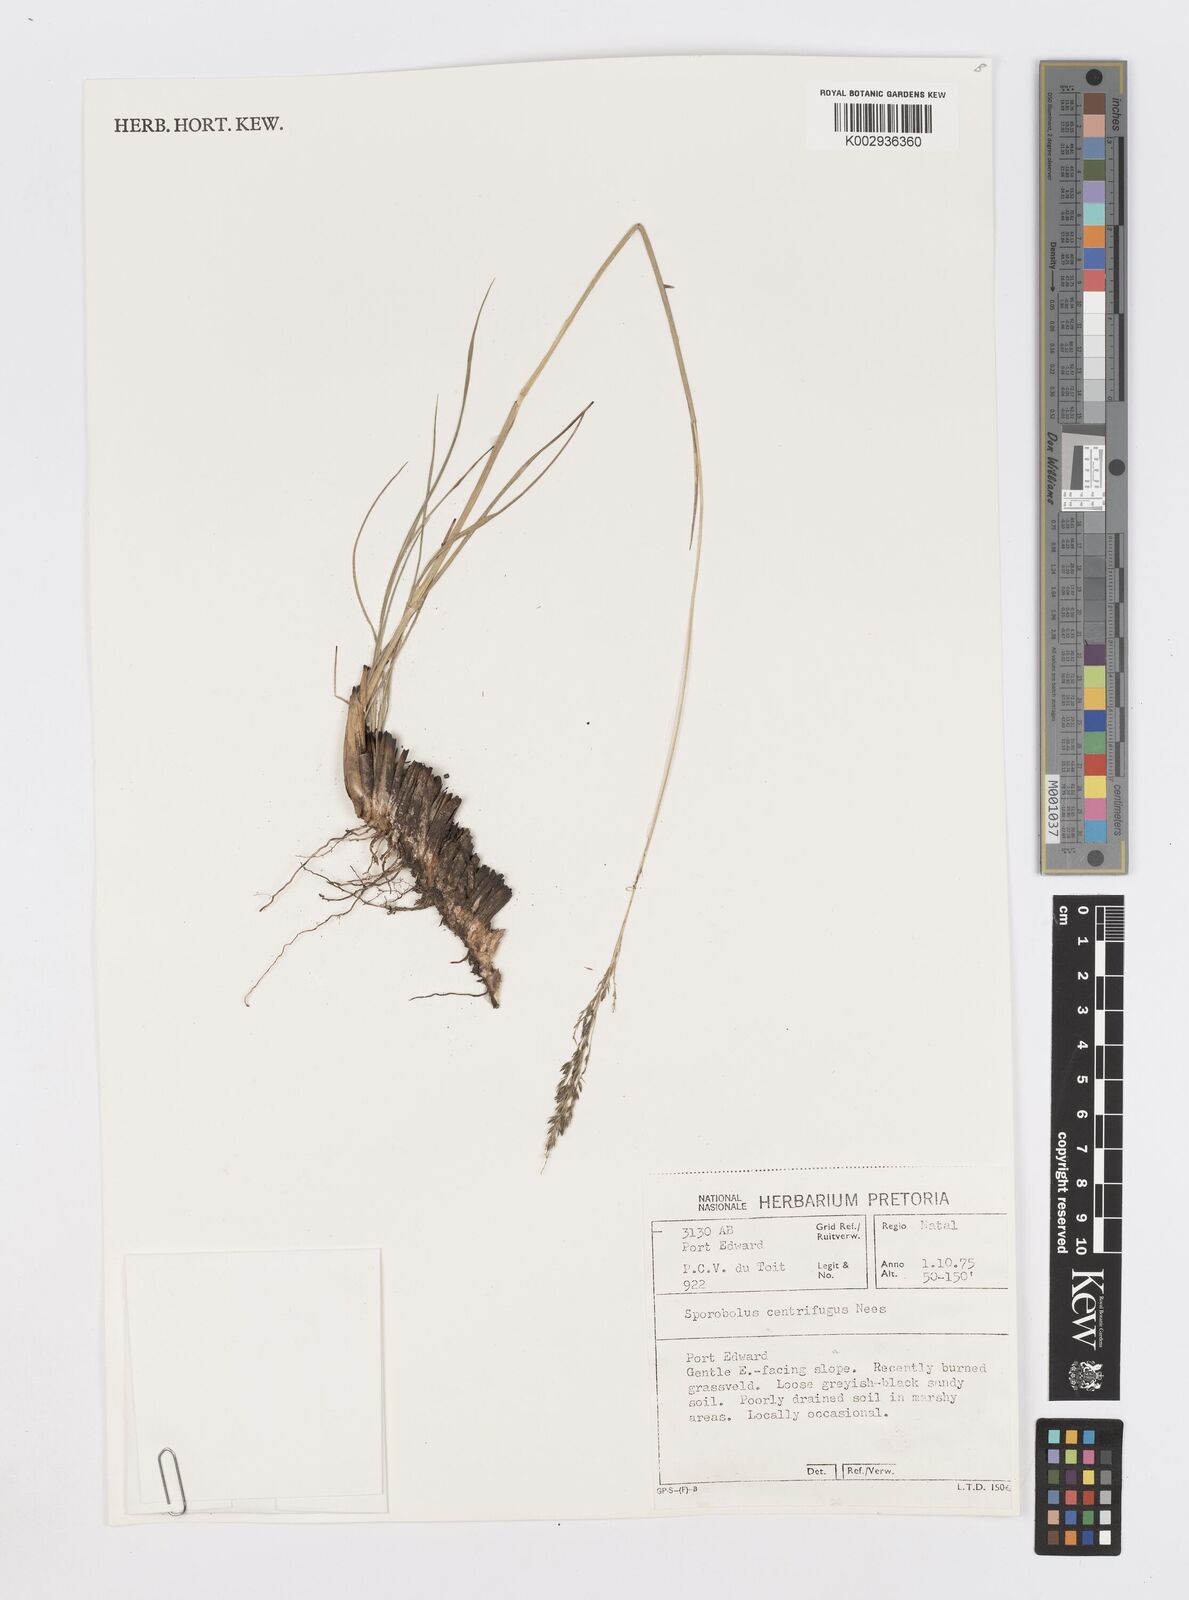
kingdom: Plantae
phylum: Tracheophyta
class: Liliopsida
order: Poales
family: Poaceae
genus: Sporobolus
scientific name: Sporobolus centrifugus
